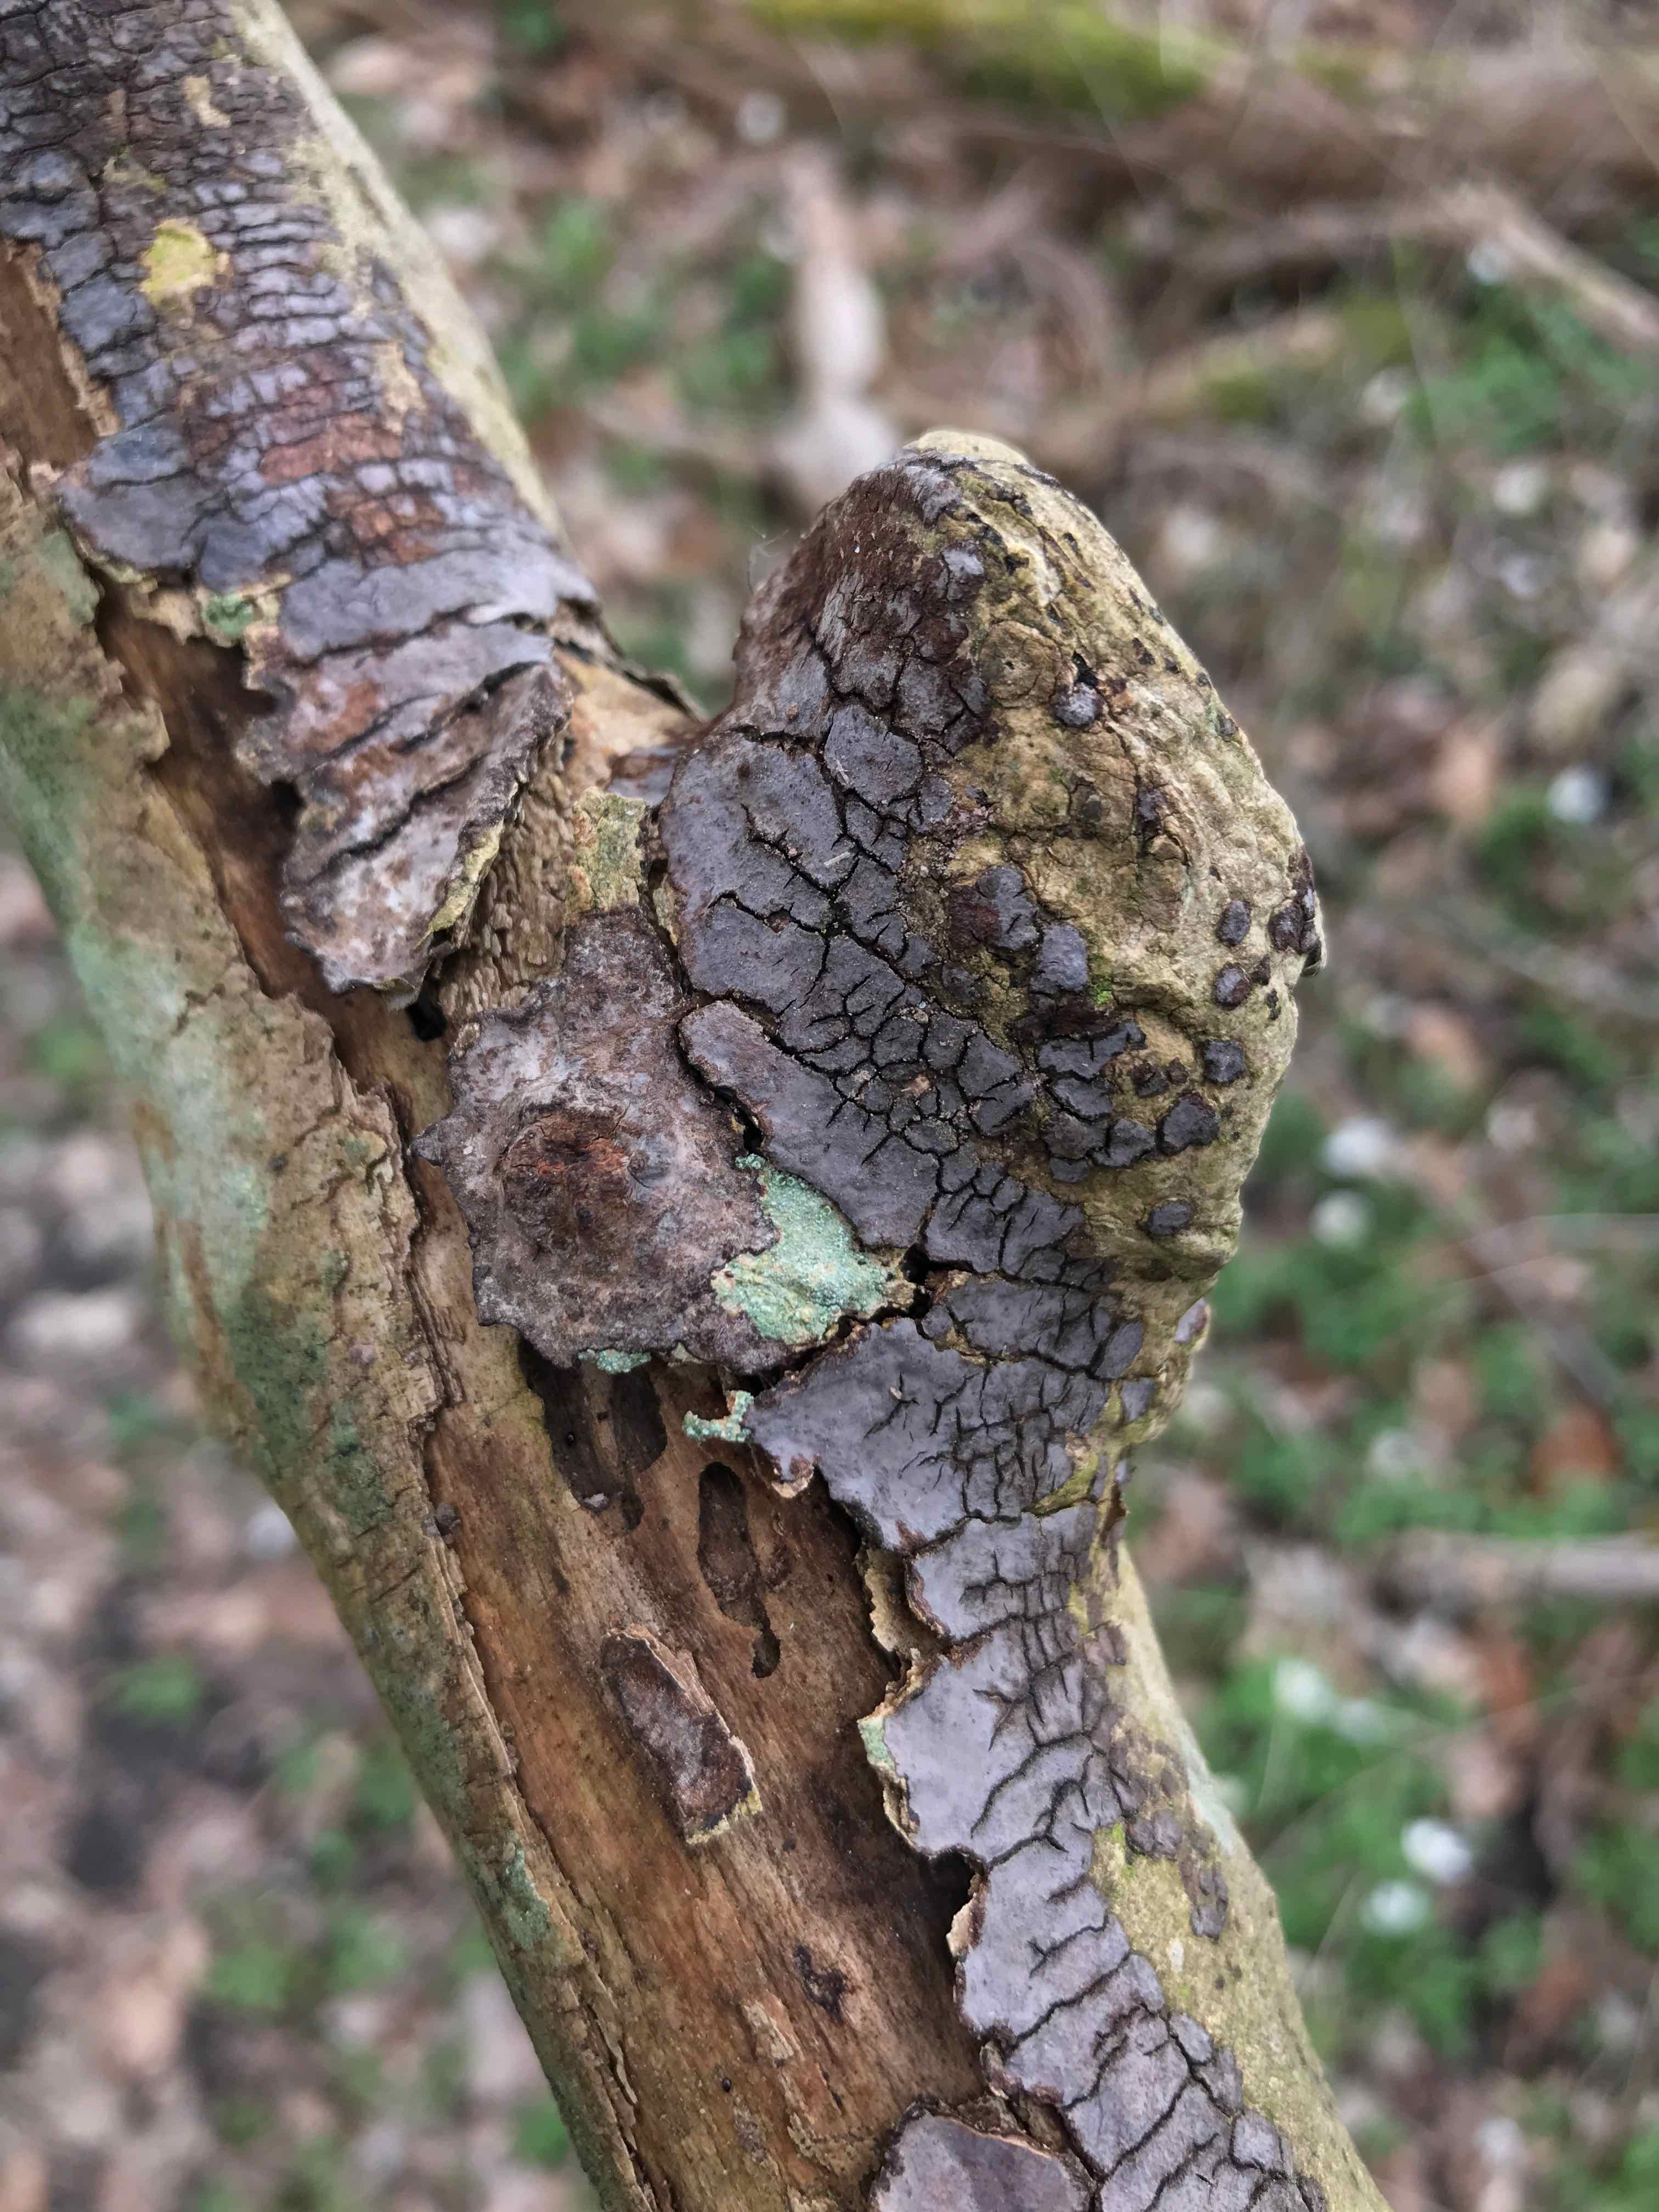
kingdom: Fungi
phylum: Basidiomycota
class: Agaricomycetes
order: Russulales
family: Peniophoraceae
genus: Peniophora
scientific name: Peniophora limitata
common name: mørkrandet voksskind
